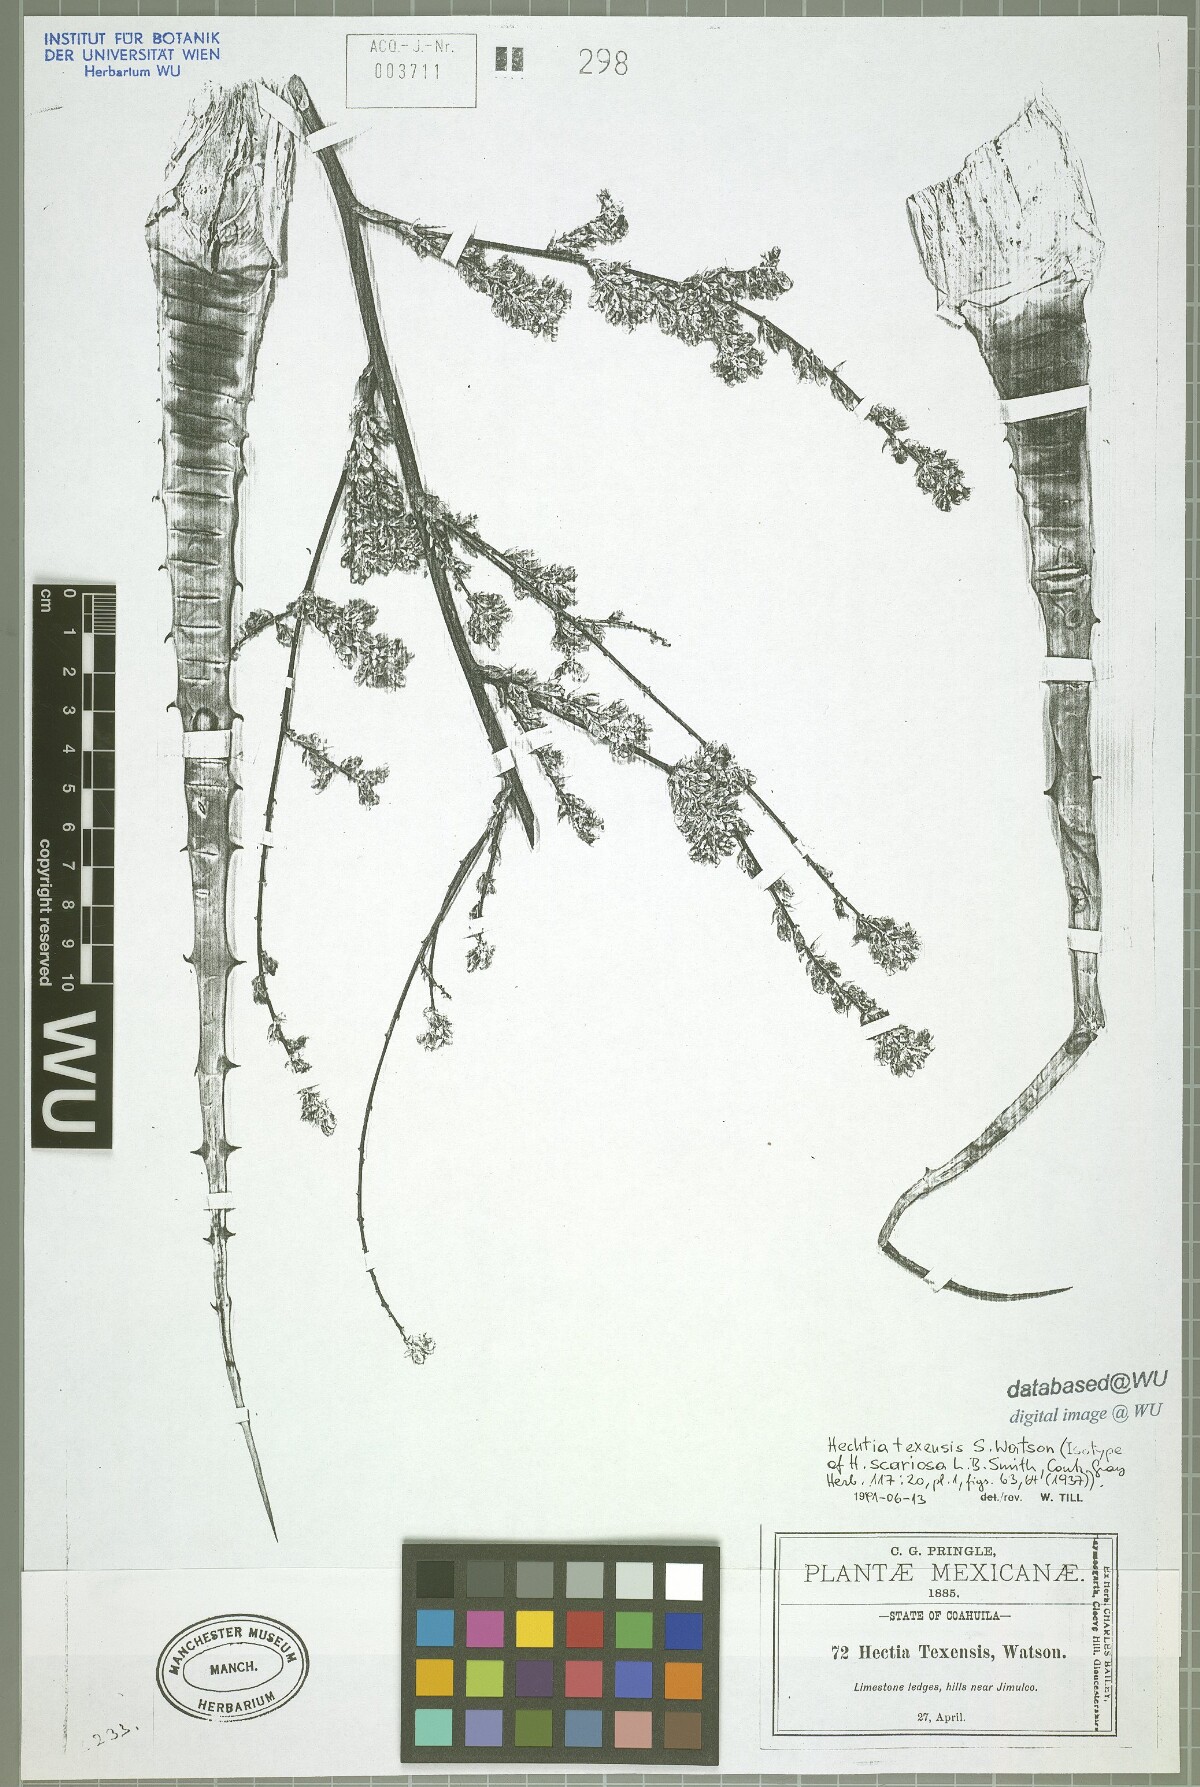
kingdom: Plantae
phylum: Tracheophyta
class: Liliopsida
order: Poales
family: Bromeliaceae
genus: Hechtia
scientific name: Hechtia texensis
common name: False agave
